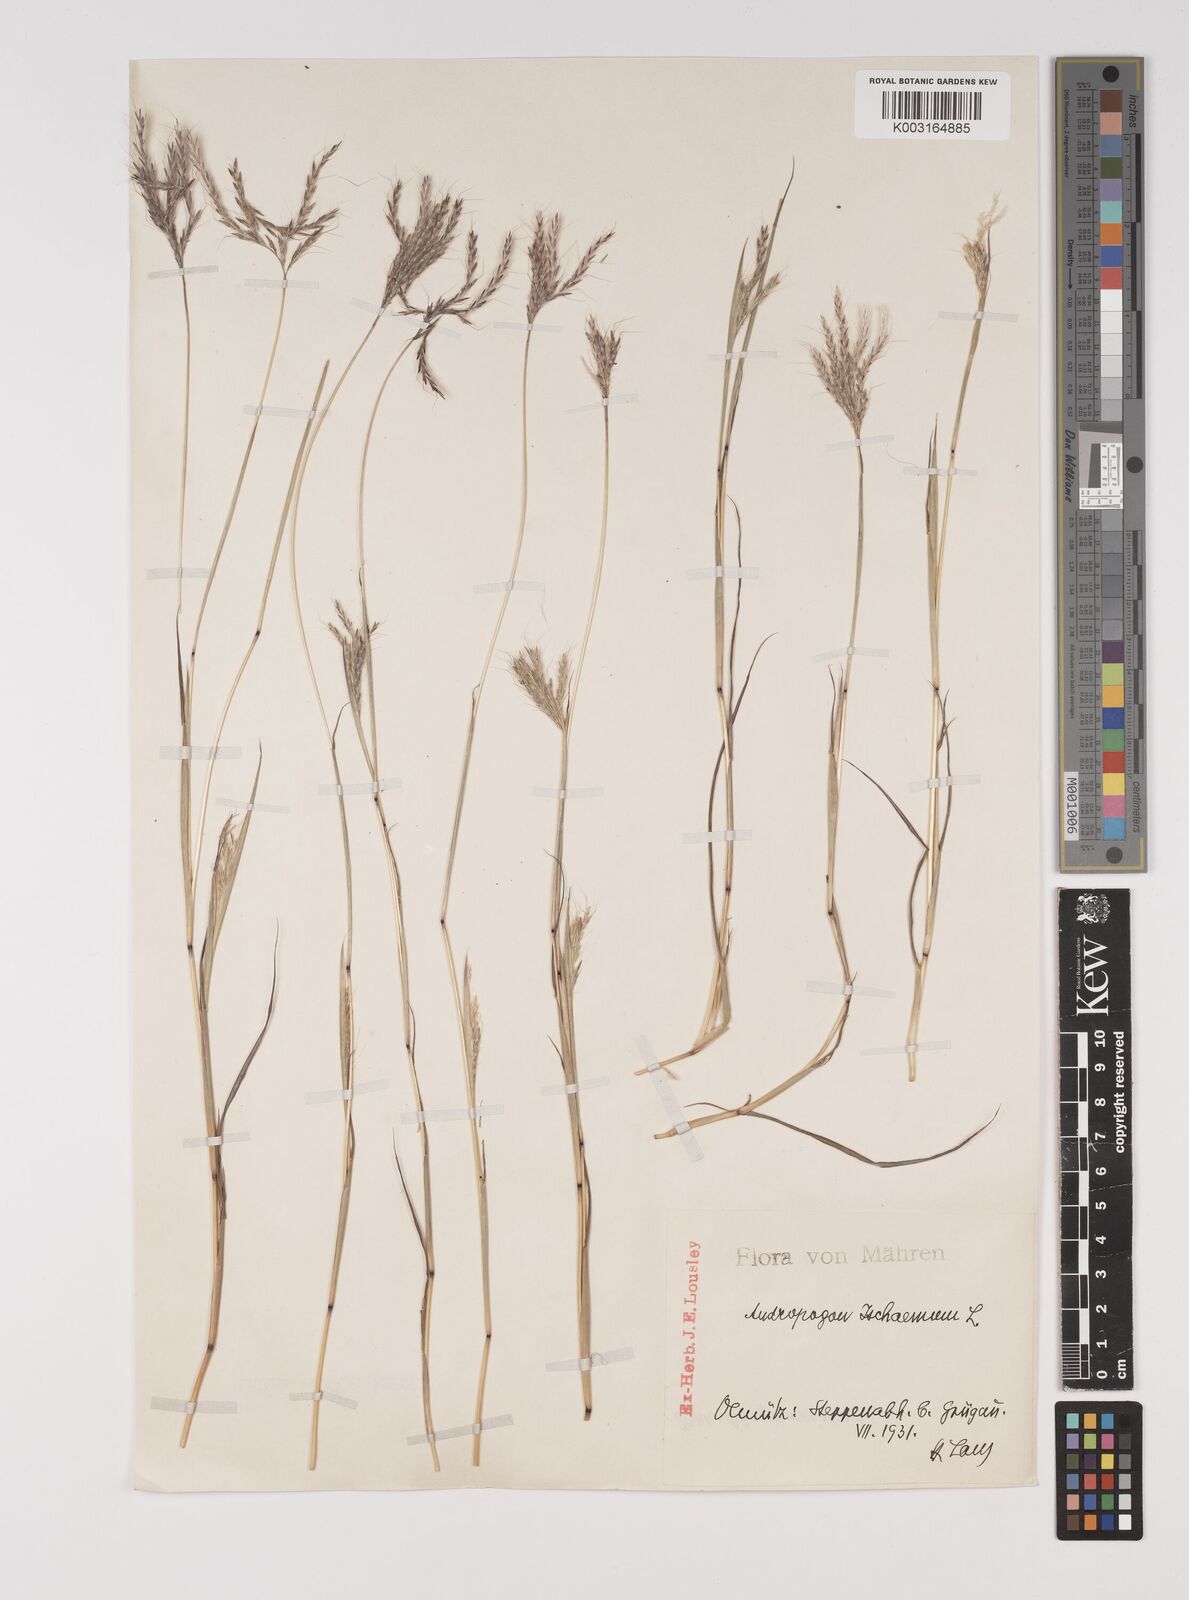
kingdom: Plantae
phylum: Tracheophyta
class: Liliopsida
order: Poales
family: Poaceae
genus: Bothriochloa
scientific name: Bothriochloa ischaemum
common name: Yellow bluestem
